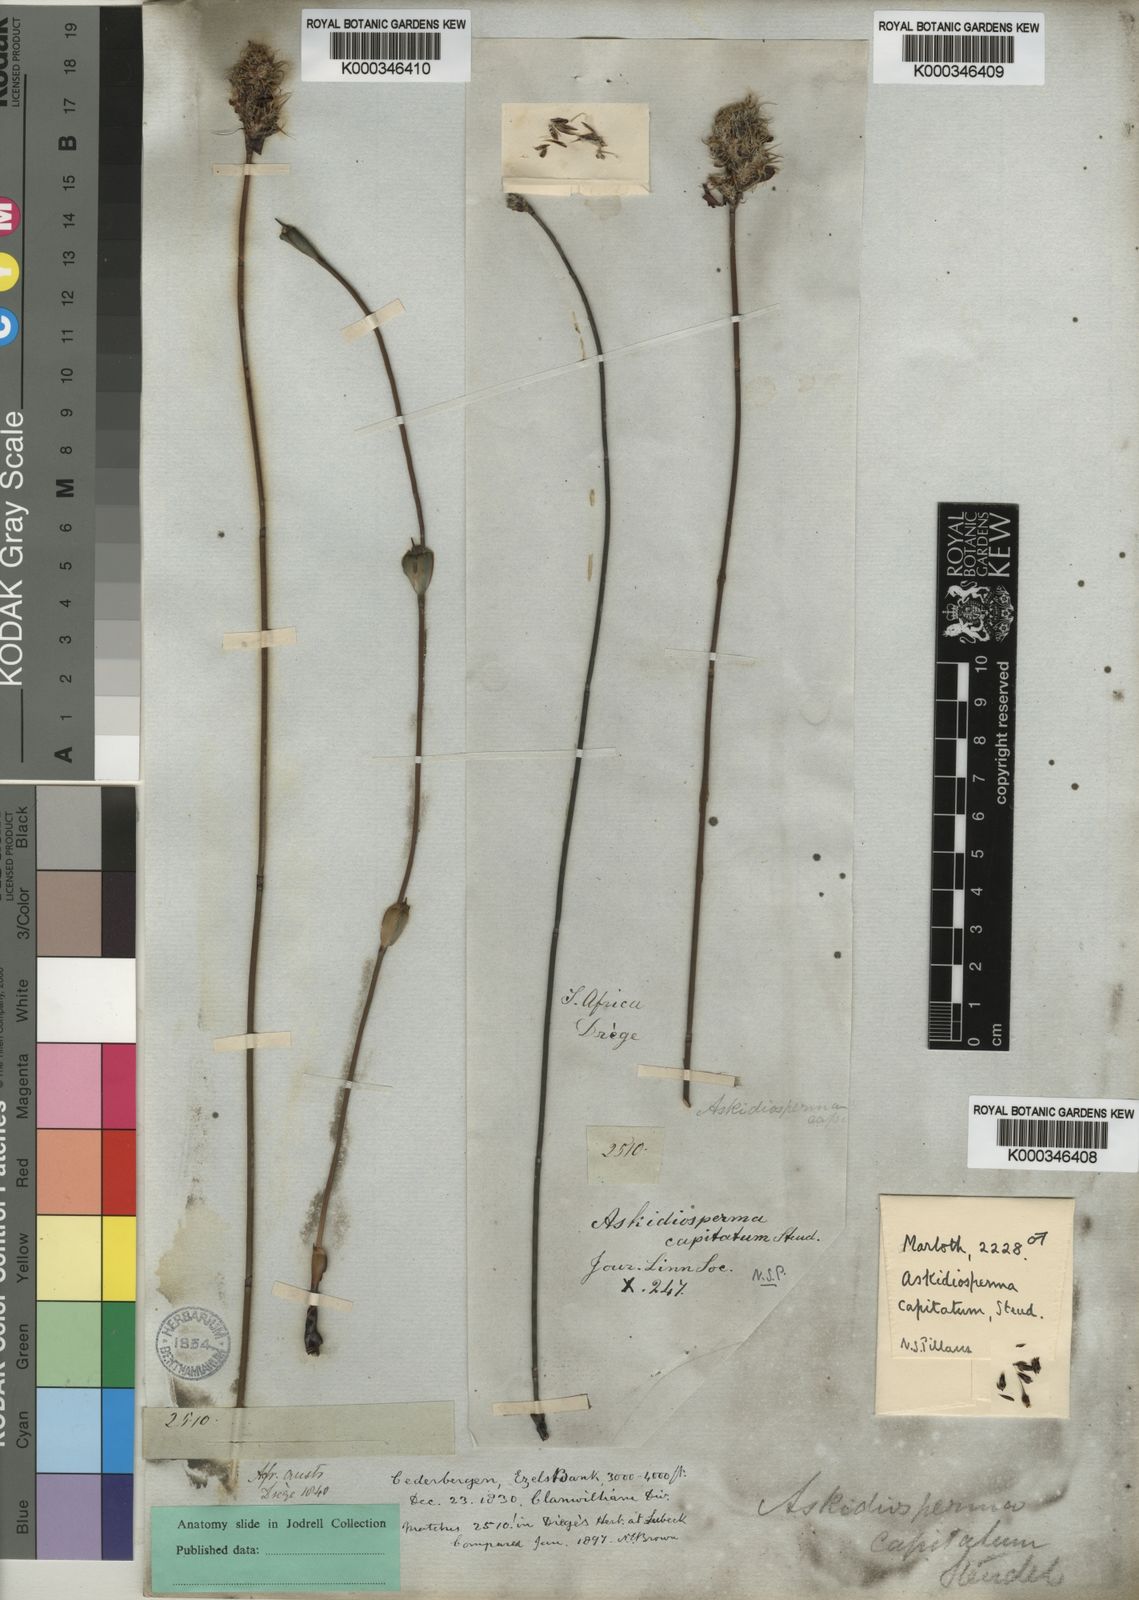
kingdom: Plantae
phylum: Tracheophyta
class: Liliopsida
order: Poales
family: Restionaceae
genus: Askidiosperma
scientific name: Askidiosperma capitatum
